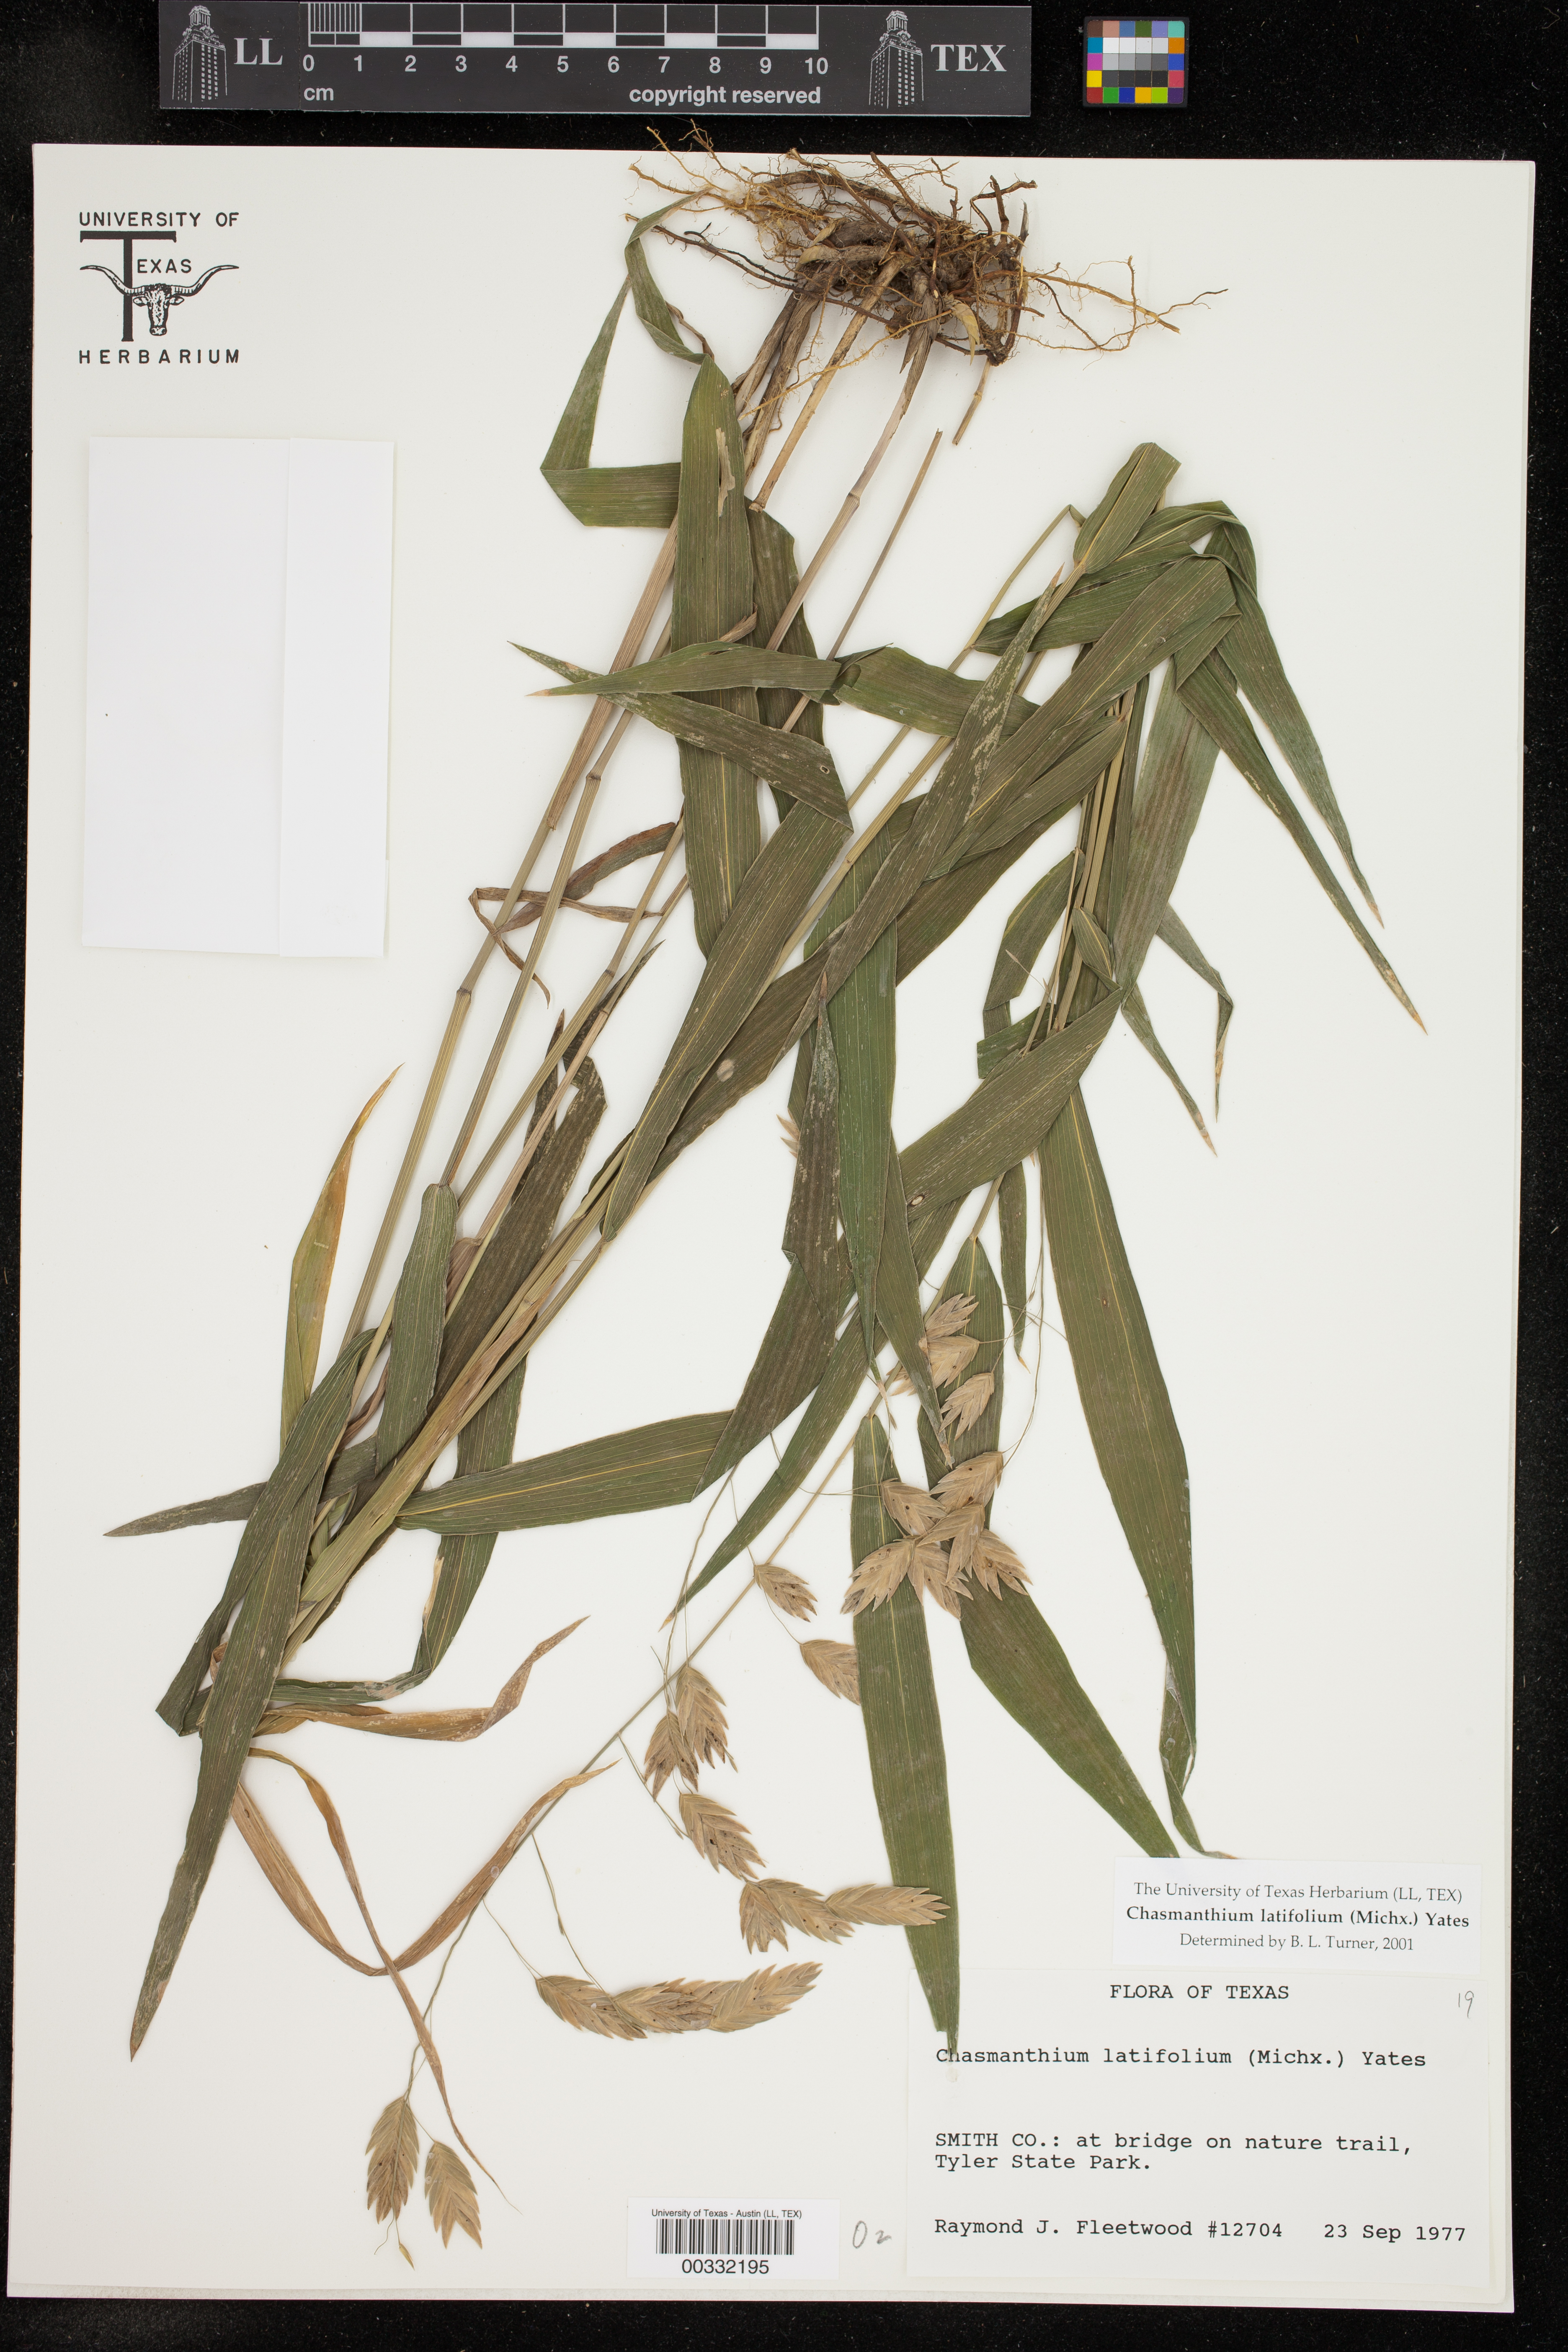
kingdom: Plantae
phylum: Tracheophyta
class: Liliopsida
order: Poales
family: Poaceae
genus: Chasmanthium
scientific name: Chasmanthium latifolium
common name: Broad-leaved chasmanthium
